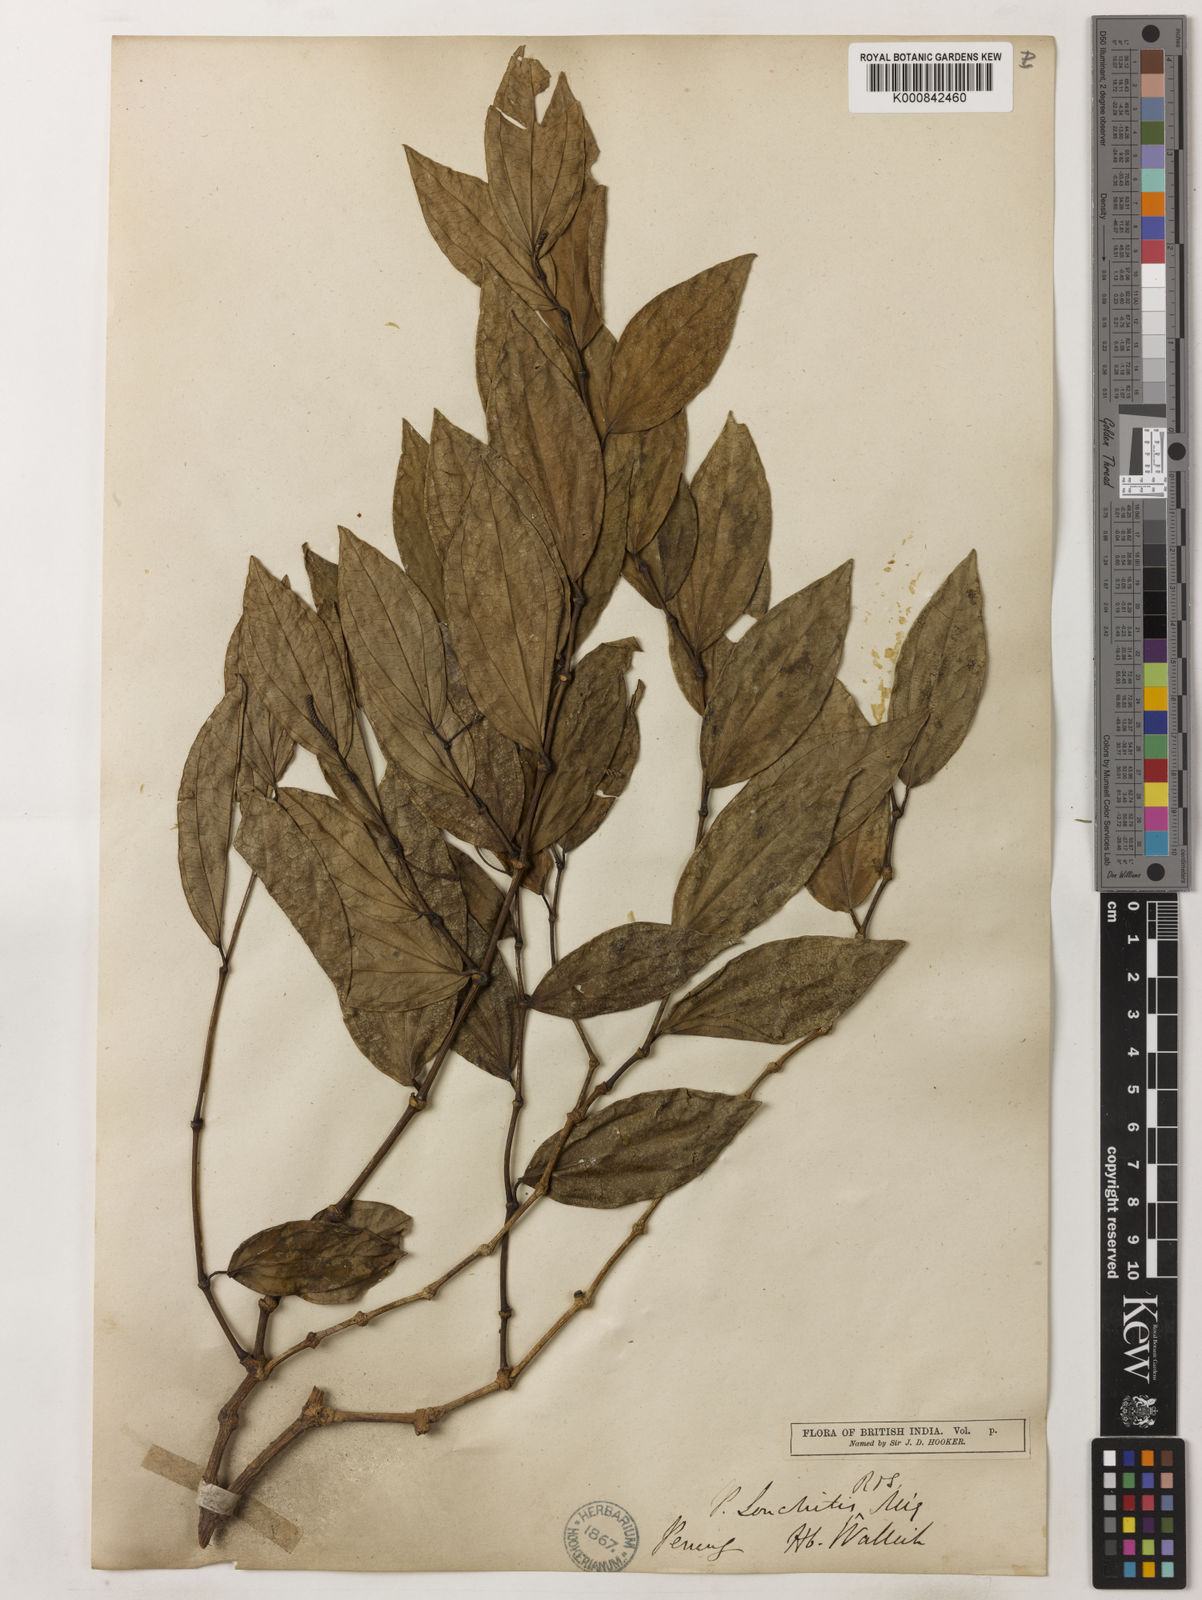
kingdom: Plantae
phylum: Tracheophyta
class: Magnoliopsida
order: Piperales
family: Piperaceae
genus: Piper
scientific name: Piper
